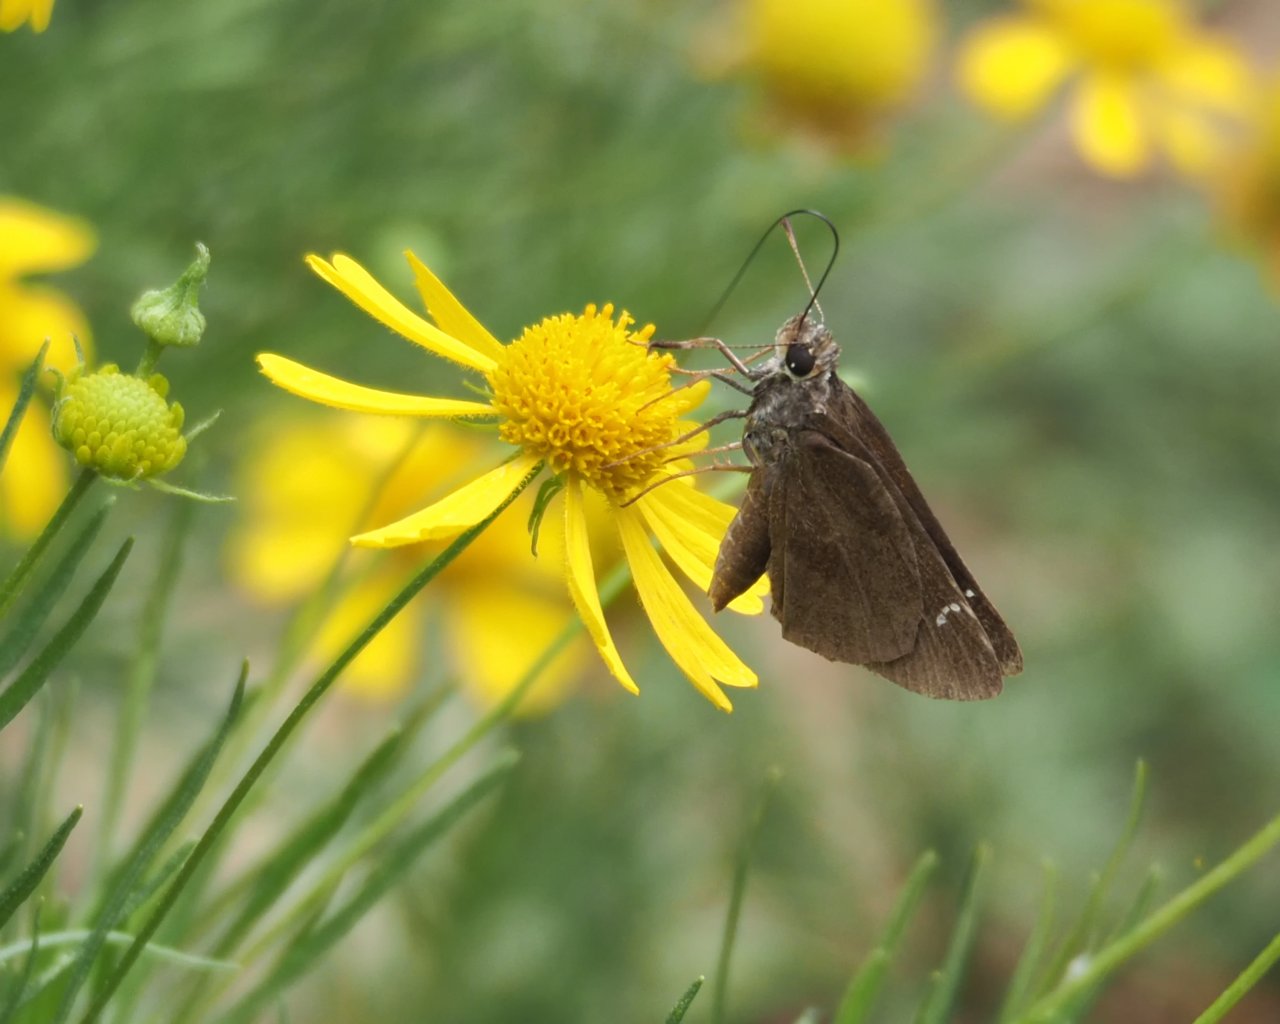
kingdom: Animalia
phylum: Arthropoda
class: Insecta
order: Lepidoptera
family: Hesperiidae
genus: Vernia
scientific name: Vernia verna
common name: Little Glassywing
